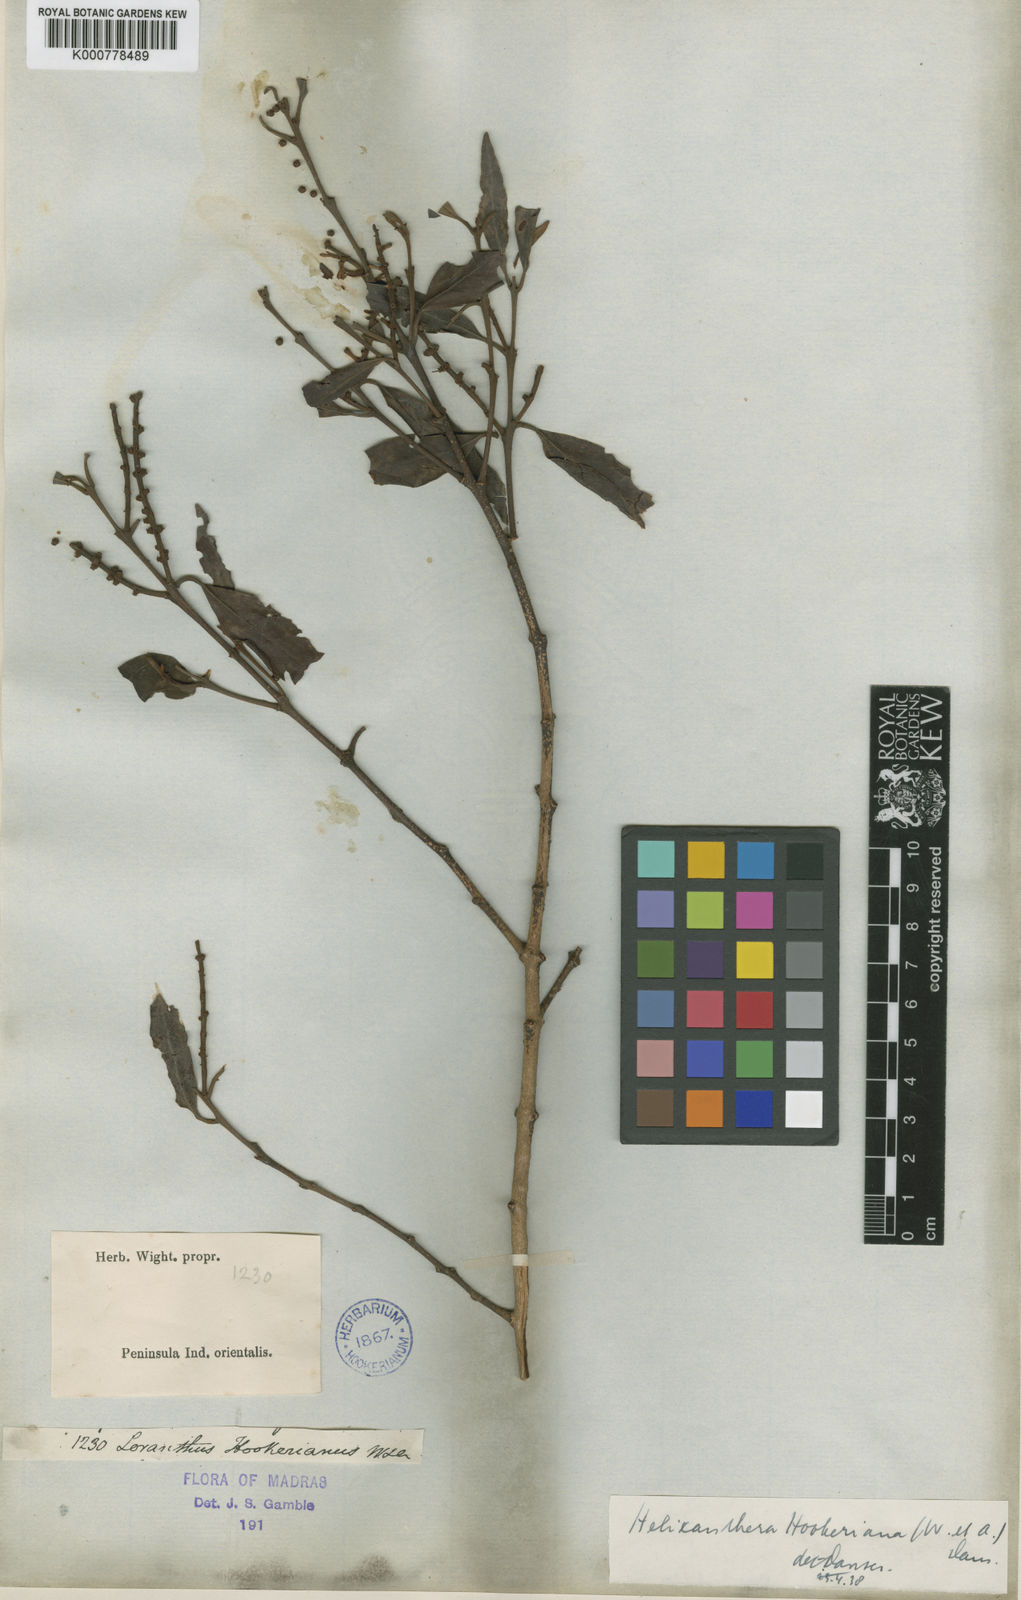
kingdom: Plantae
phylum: Tracheophyta
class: Magnoliopsida
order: Santalales
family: Loranthaceae
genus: Helixanthera
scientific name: Helixanthera hookeriana
